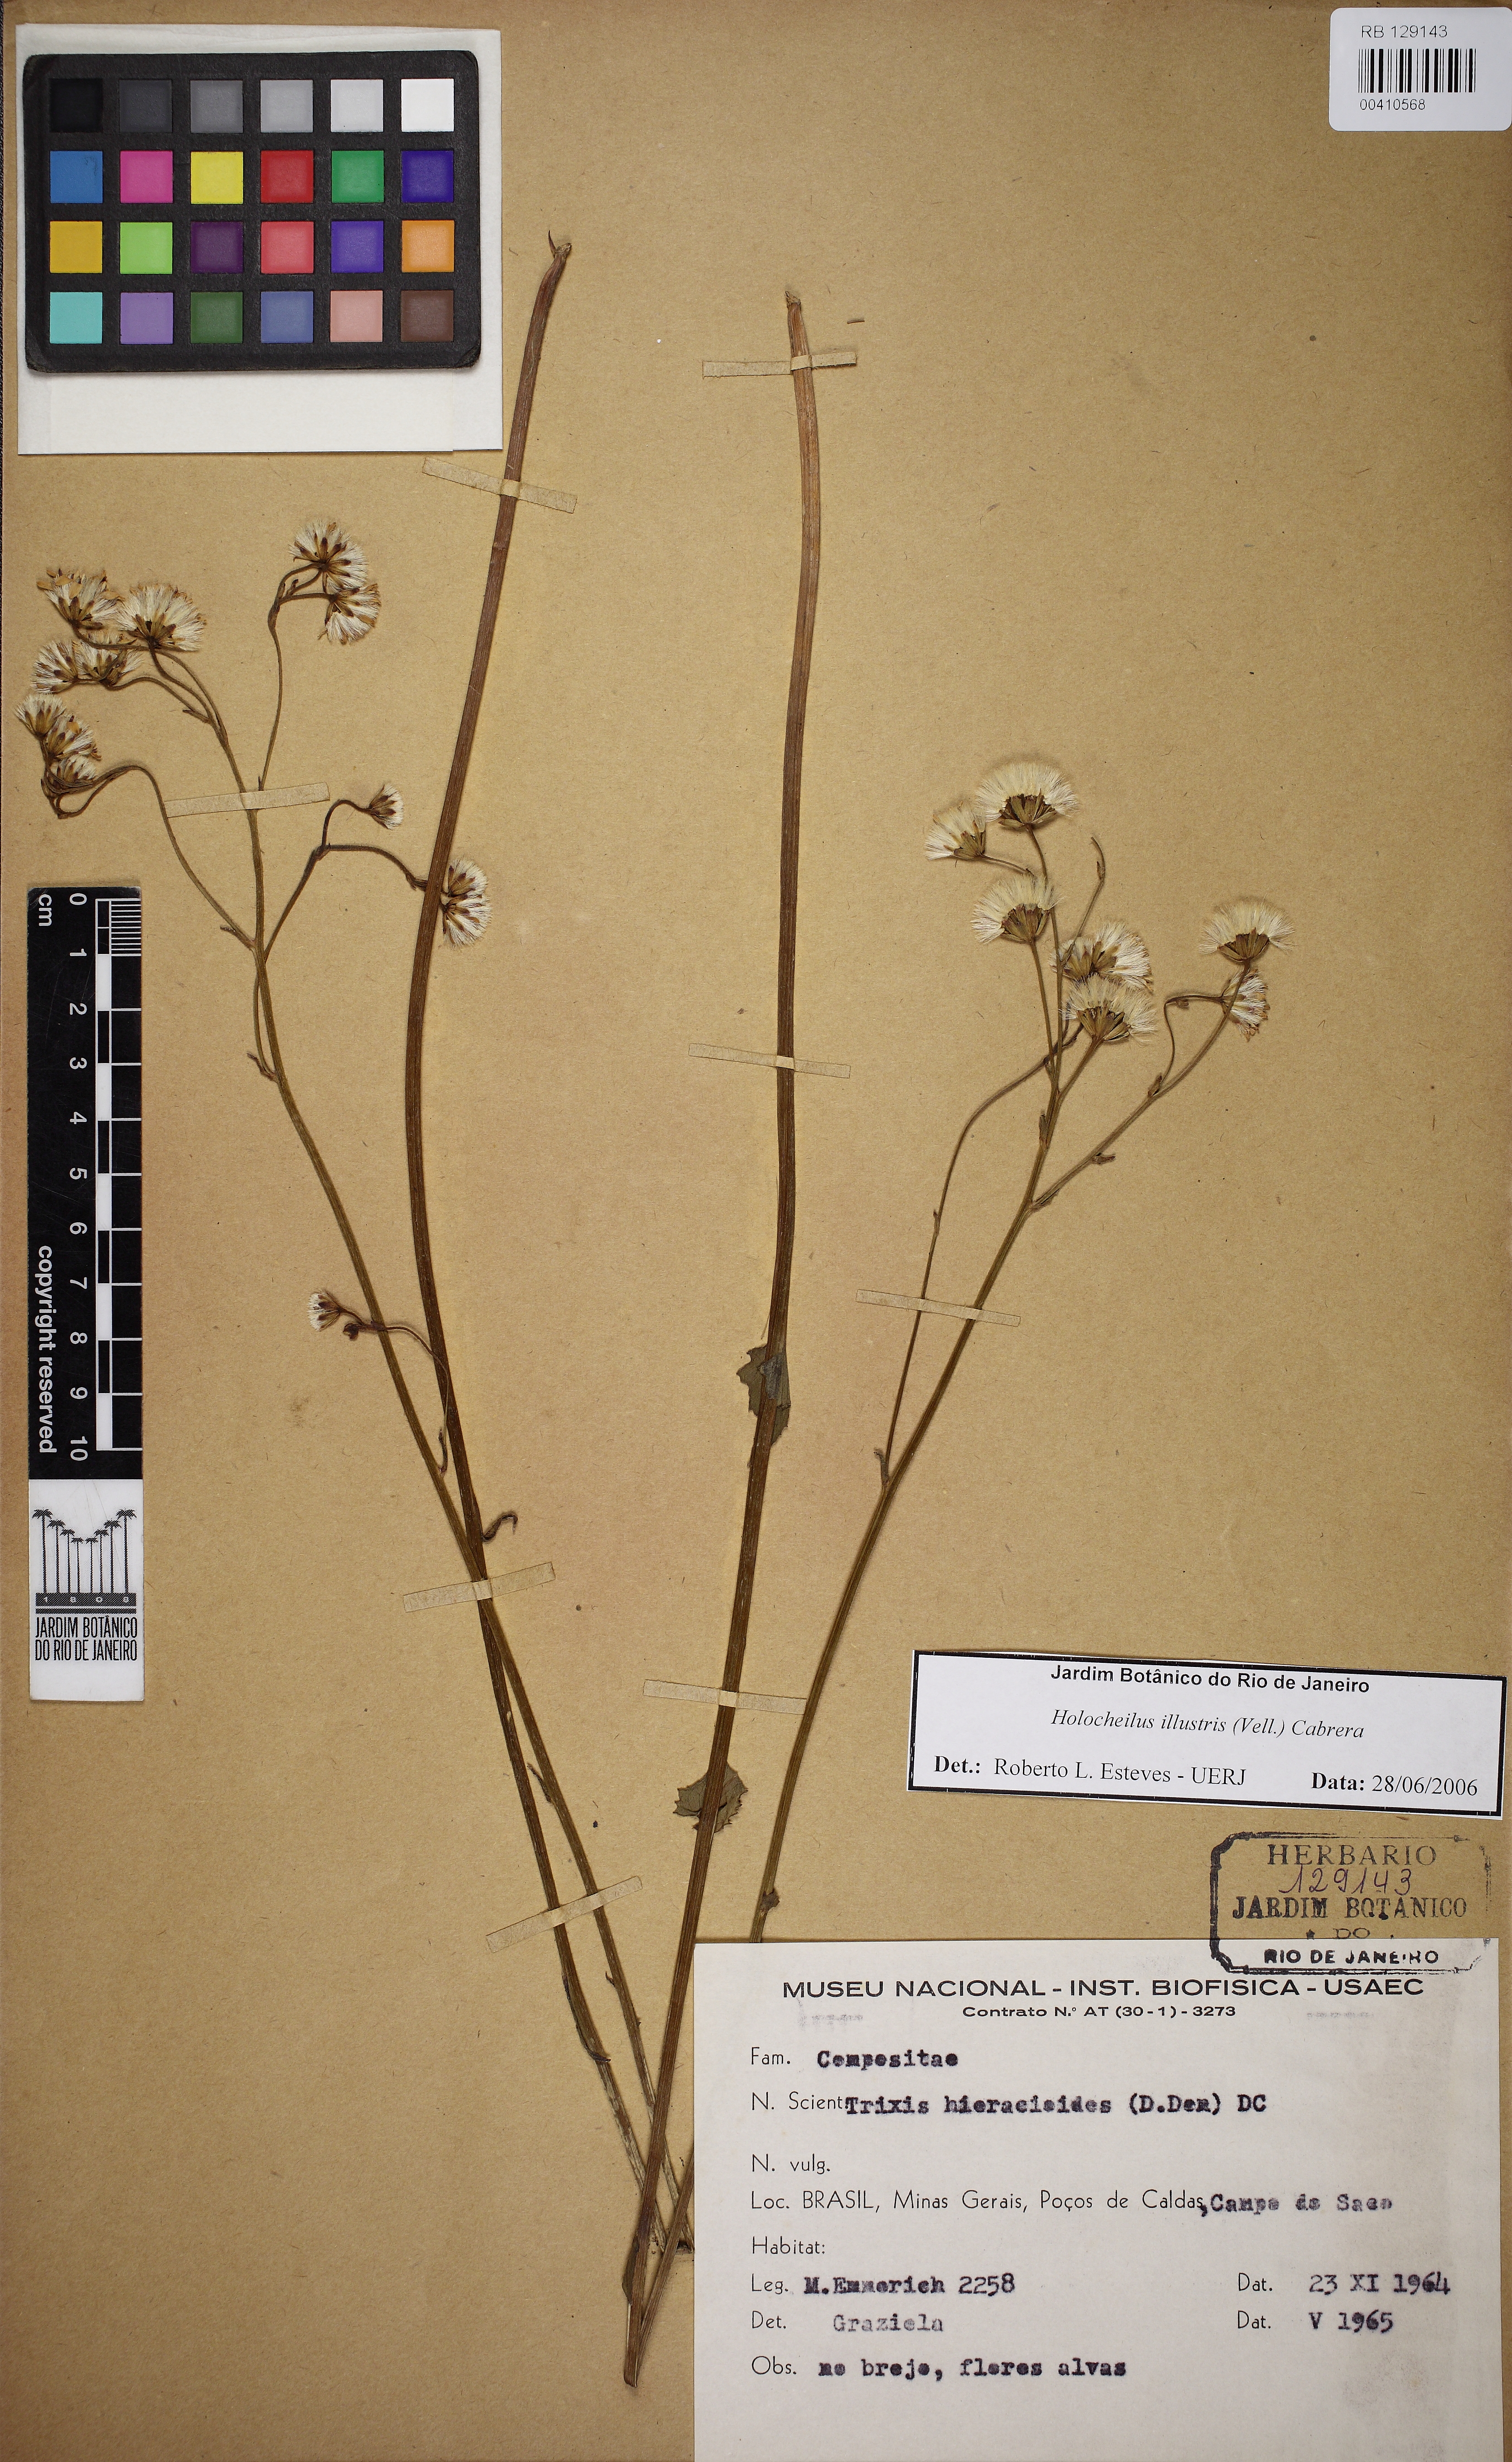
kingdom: Plantae
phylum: Tracheophyta
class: Magnoliopsida
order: Asterales
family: Asteraceae
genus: Holocheilus
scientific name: Holocheilus illustris
